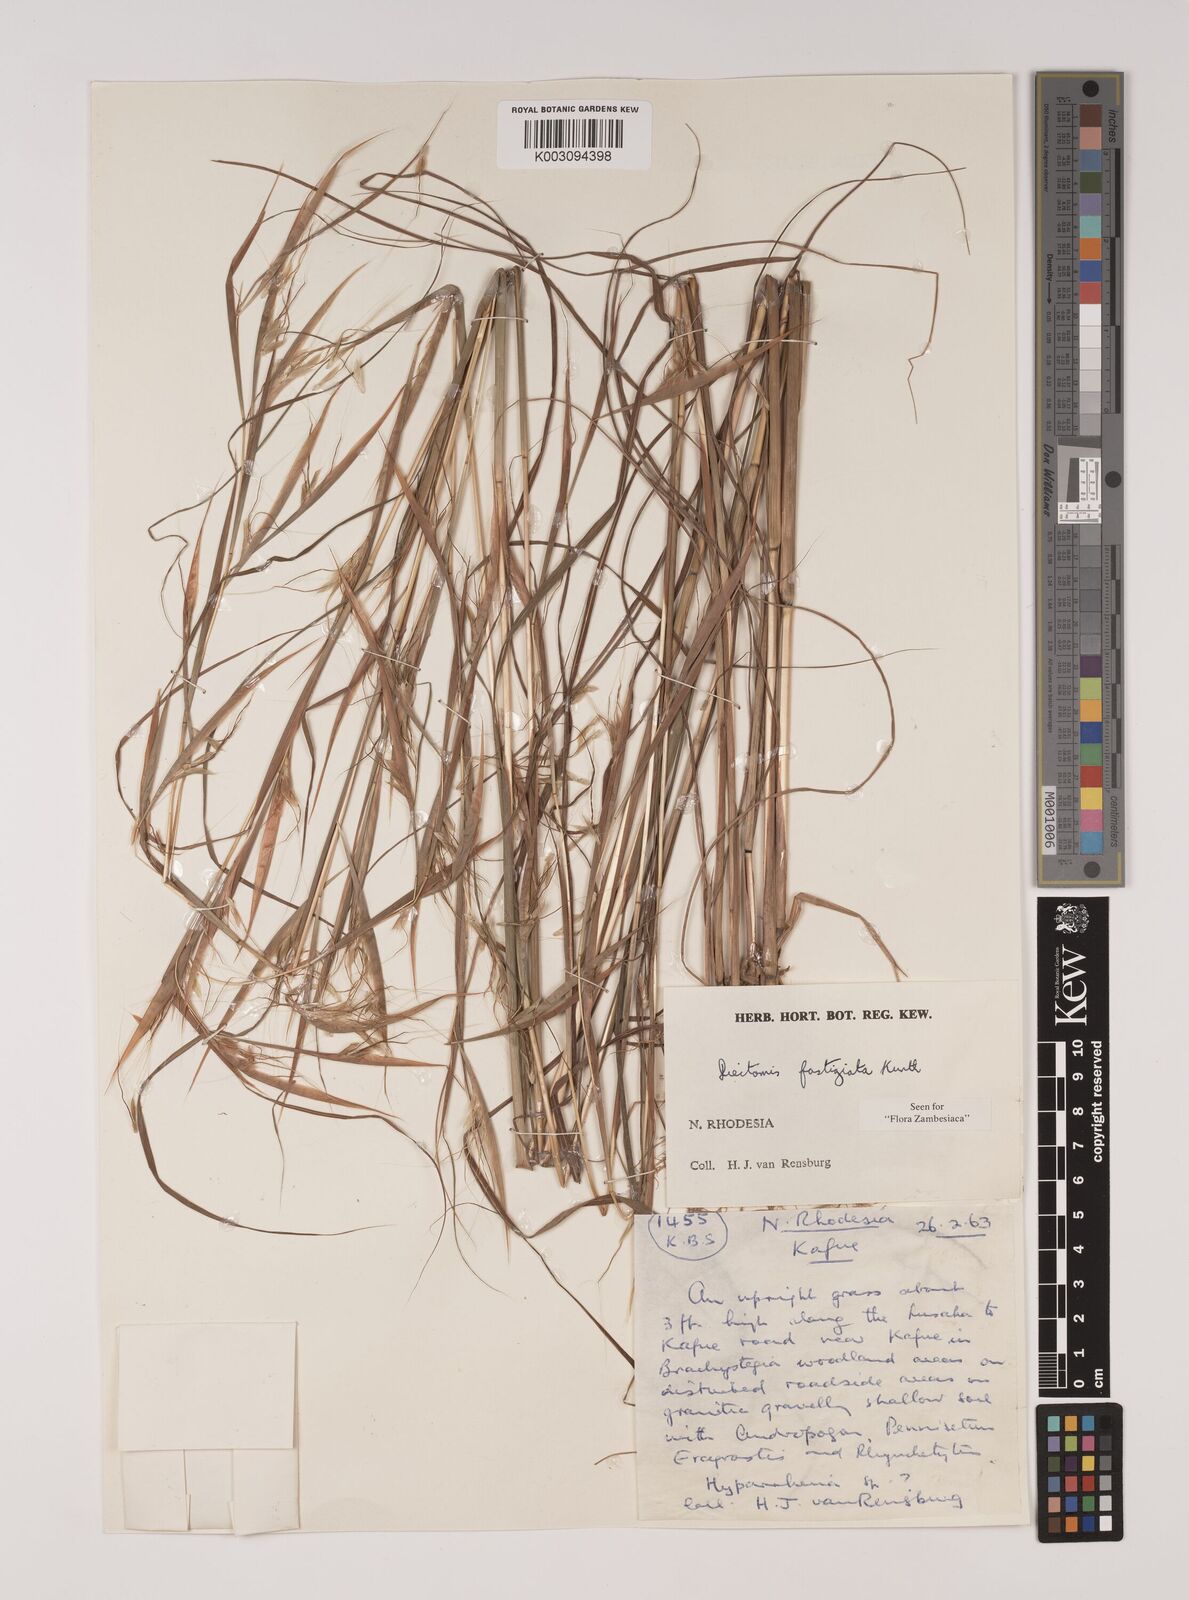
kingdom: Plantae
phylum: Tracheophyta
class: Liliopsida
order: Poales
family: Poaceae
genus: Diectomis
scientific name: Diectomis fastigiata
